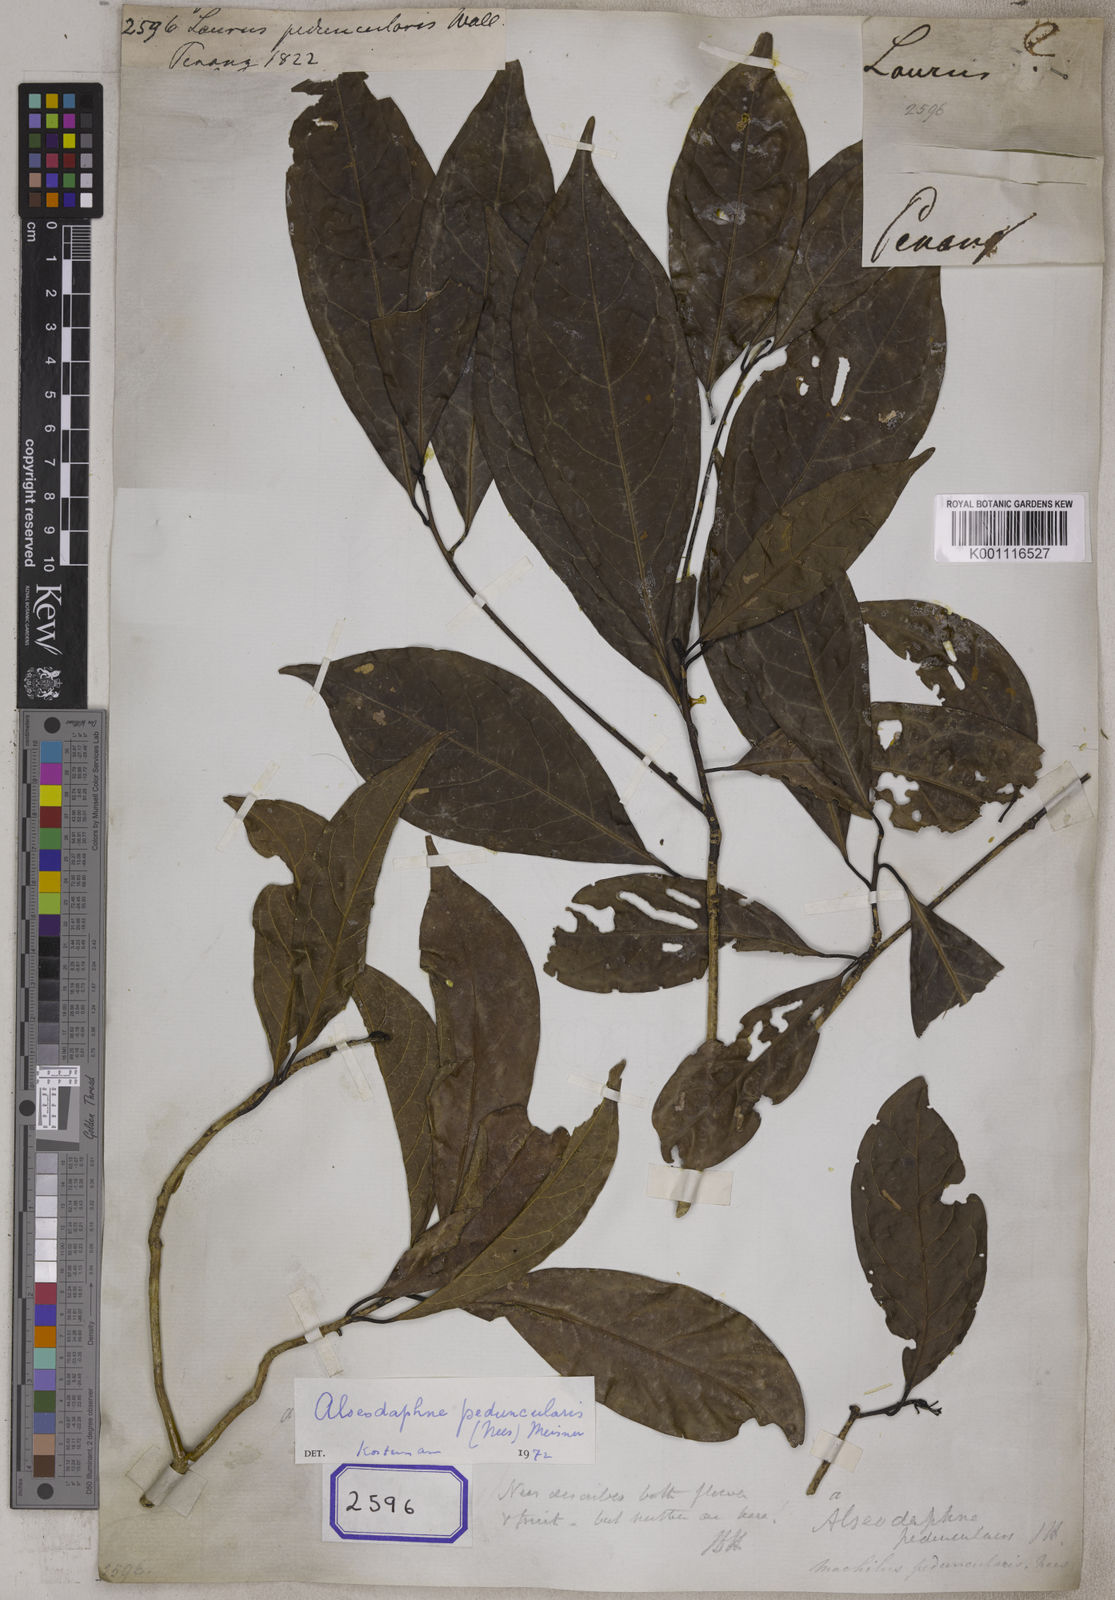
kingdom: Plantae
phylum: Tracheophyta
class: Magnoliopsida
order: Laurales
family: Lauraceae
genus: Laurus
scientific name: Laurus peduncularis
